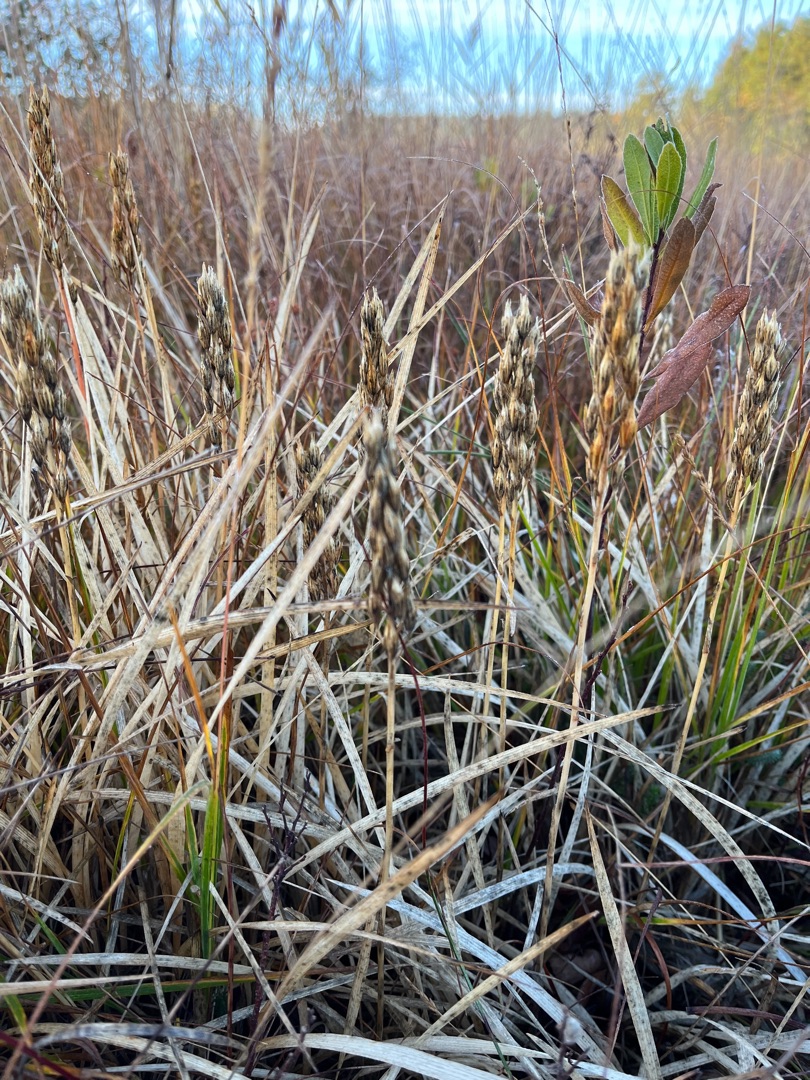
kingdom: Plantae
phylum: Tracheophyta
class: Liliopsida
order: Dioscoreales
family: Nartheciaceae
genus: Narthecium
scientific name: Narthecium ossifragum
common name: Benbræk
